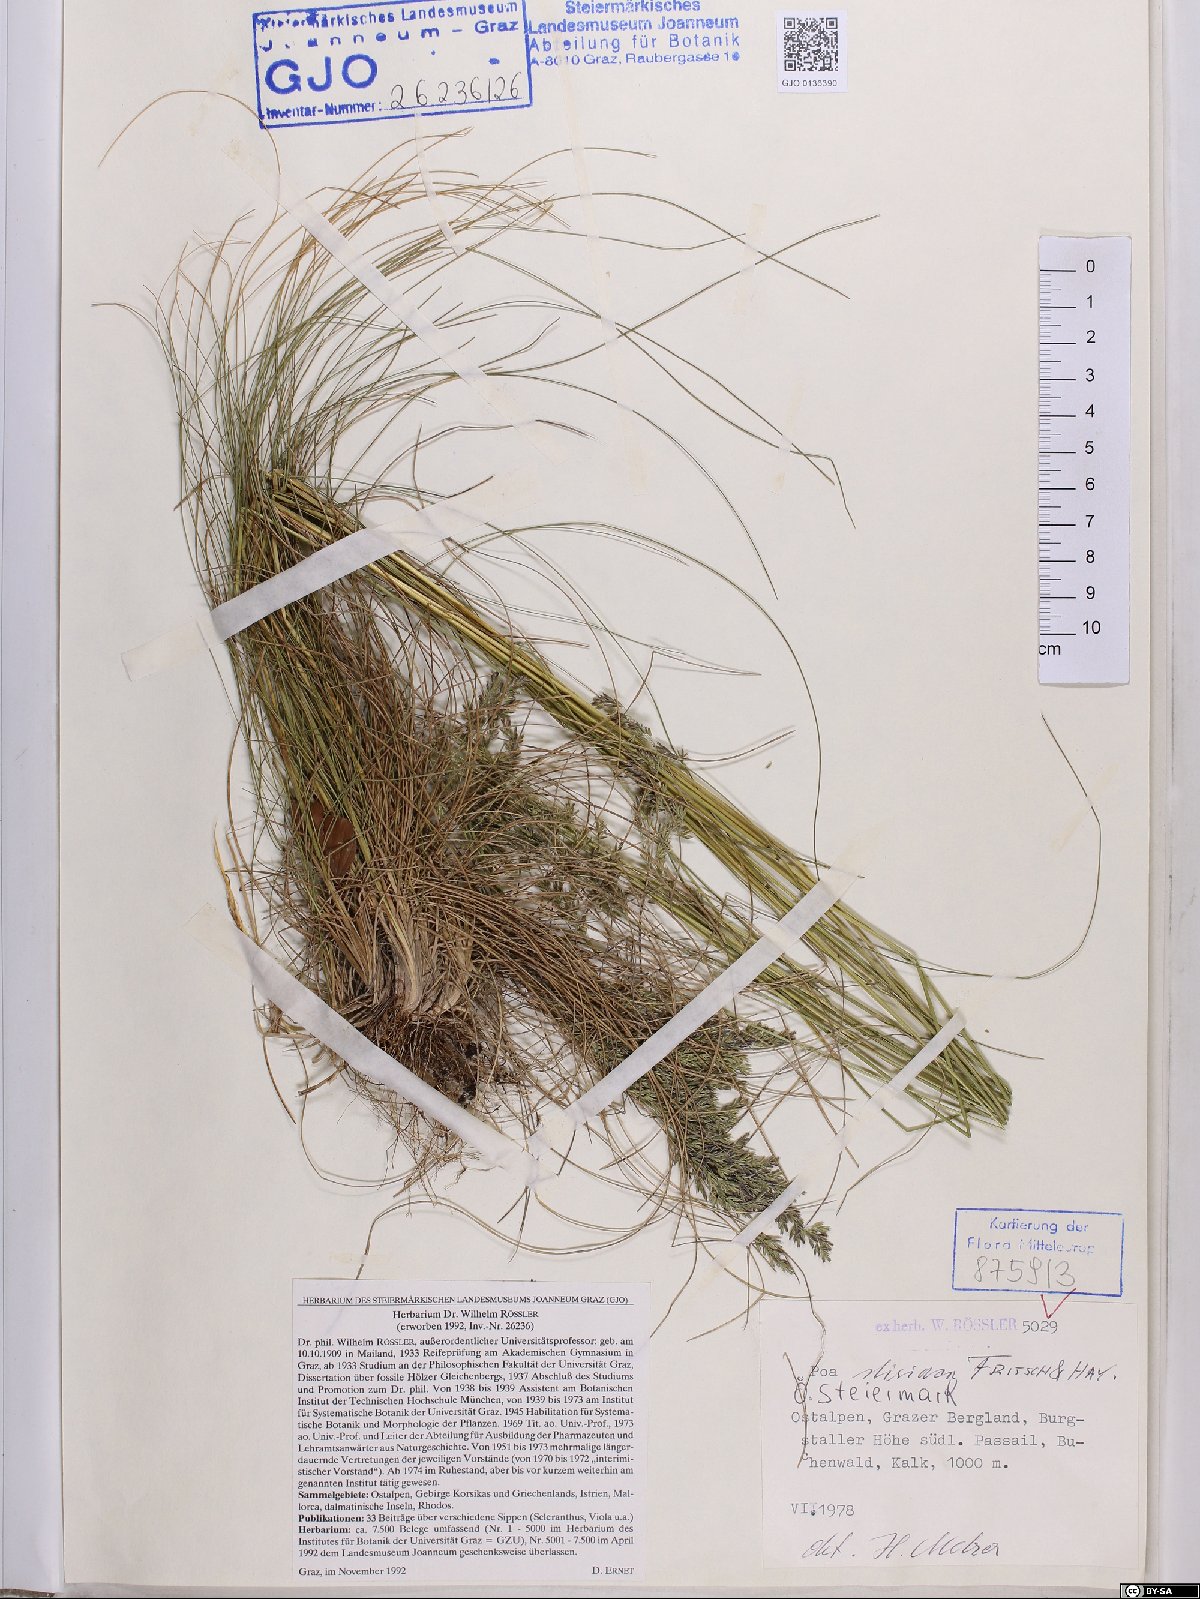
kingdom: Plantae
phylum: Tracheophyta
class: Liliopsida
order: Poales
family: Poaceae
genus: Poa
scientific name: Poa stiriaca
